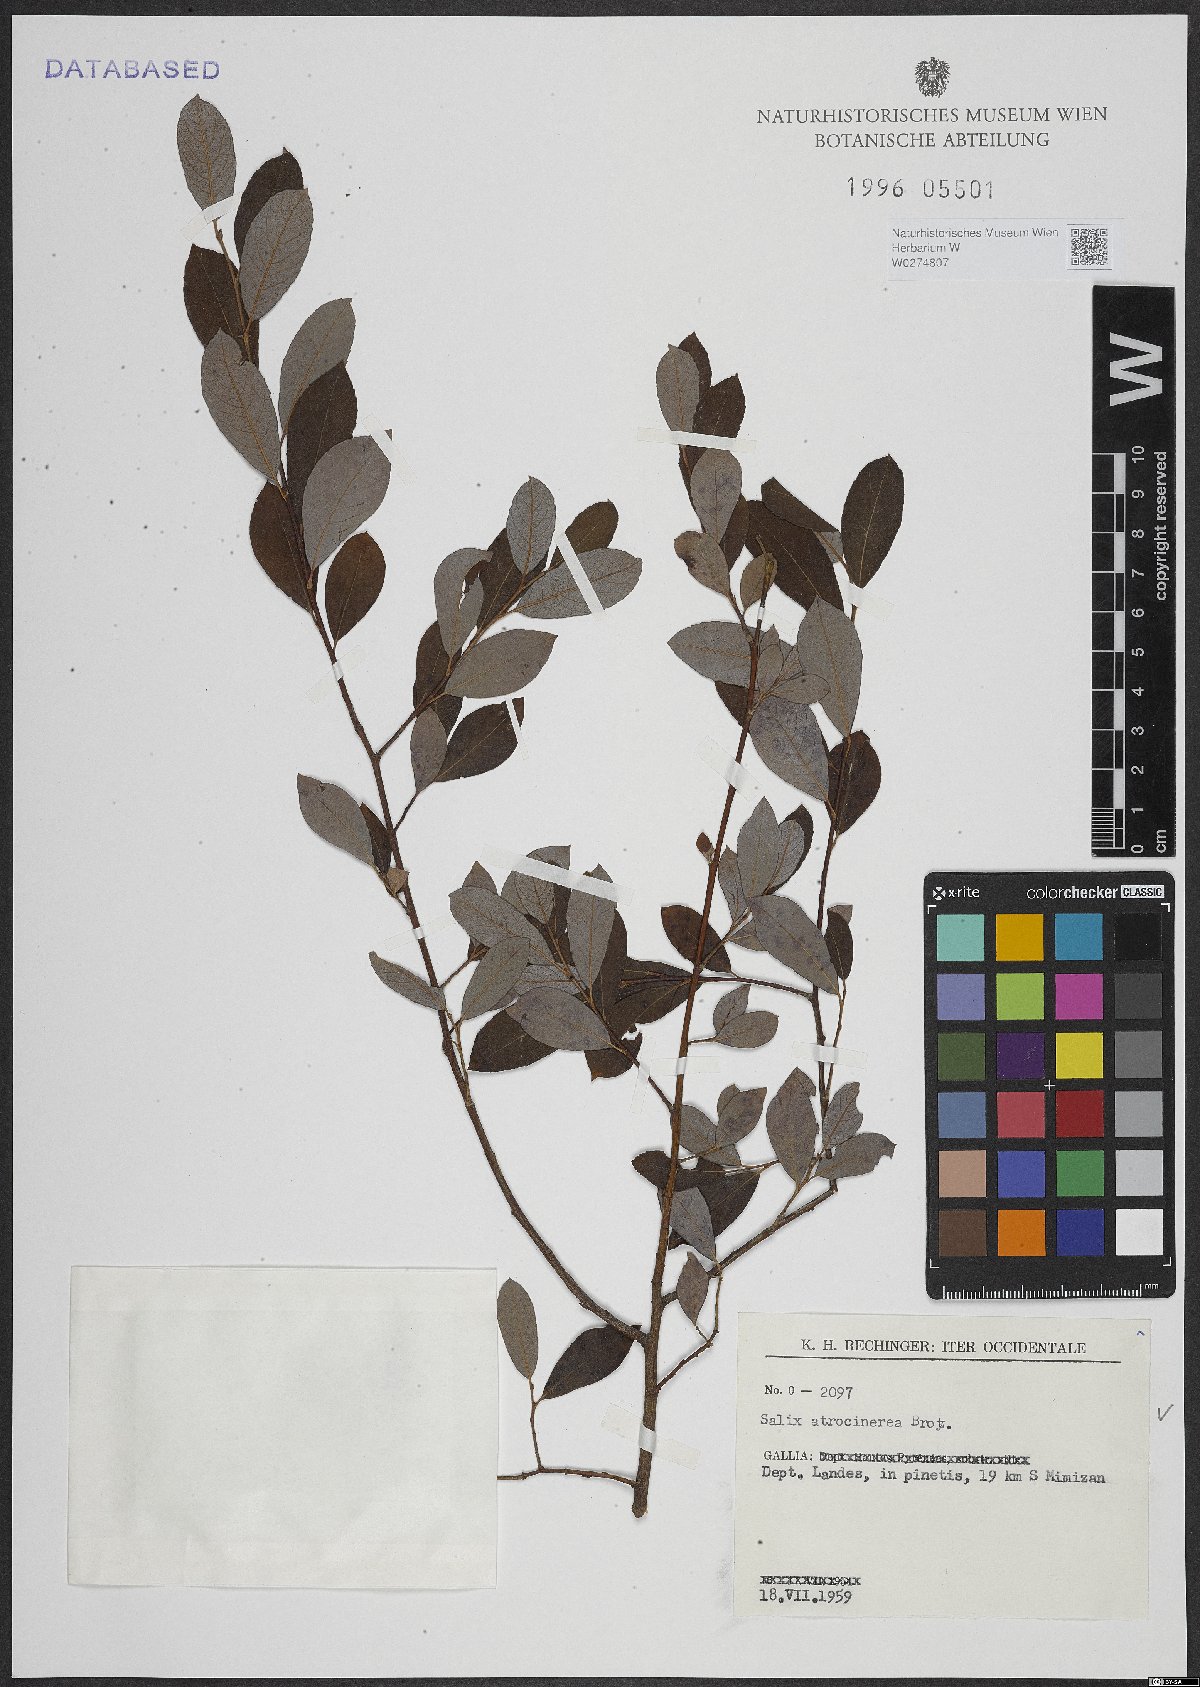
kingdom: Plantae
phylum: Tracheophyta
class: Magnoliopsida
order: Malpighiales
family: Salicaceae
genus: Salix
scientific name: Salix atrocinerea
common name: Rusty willow
